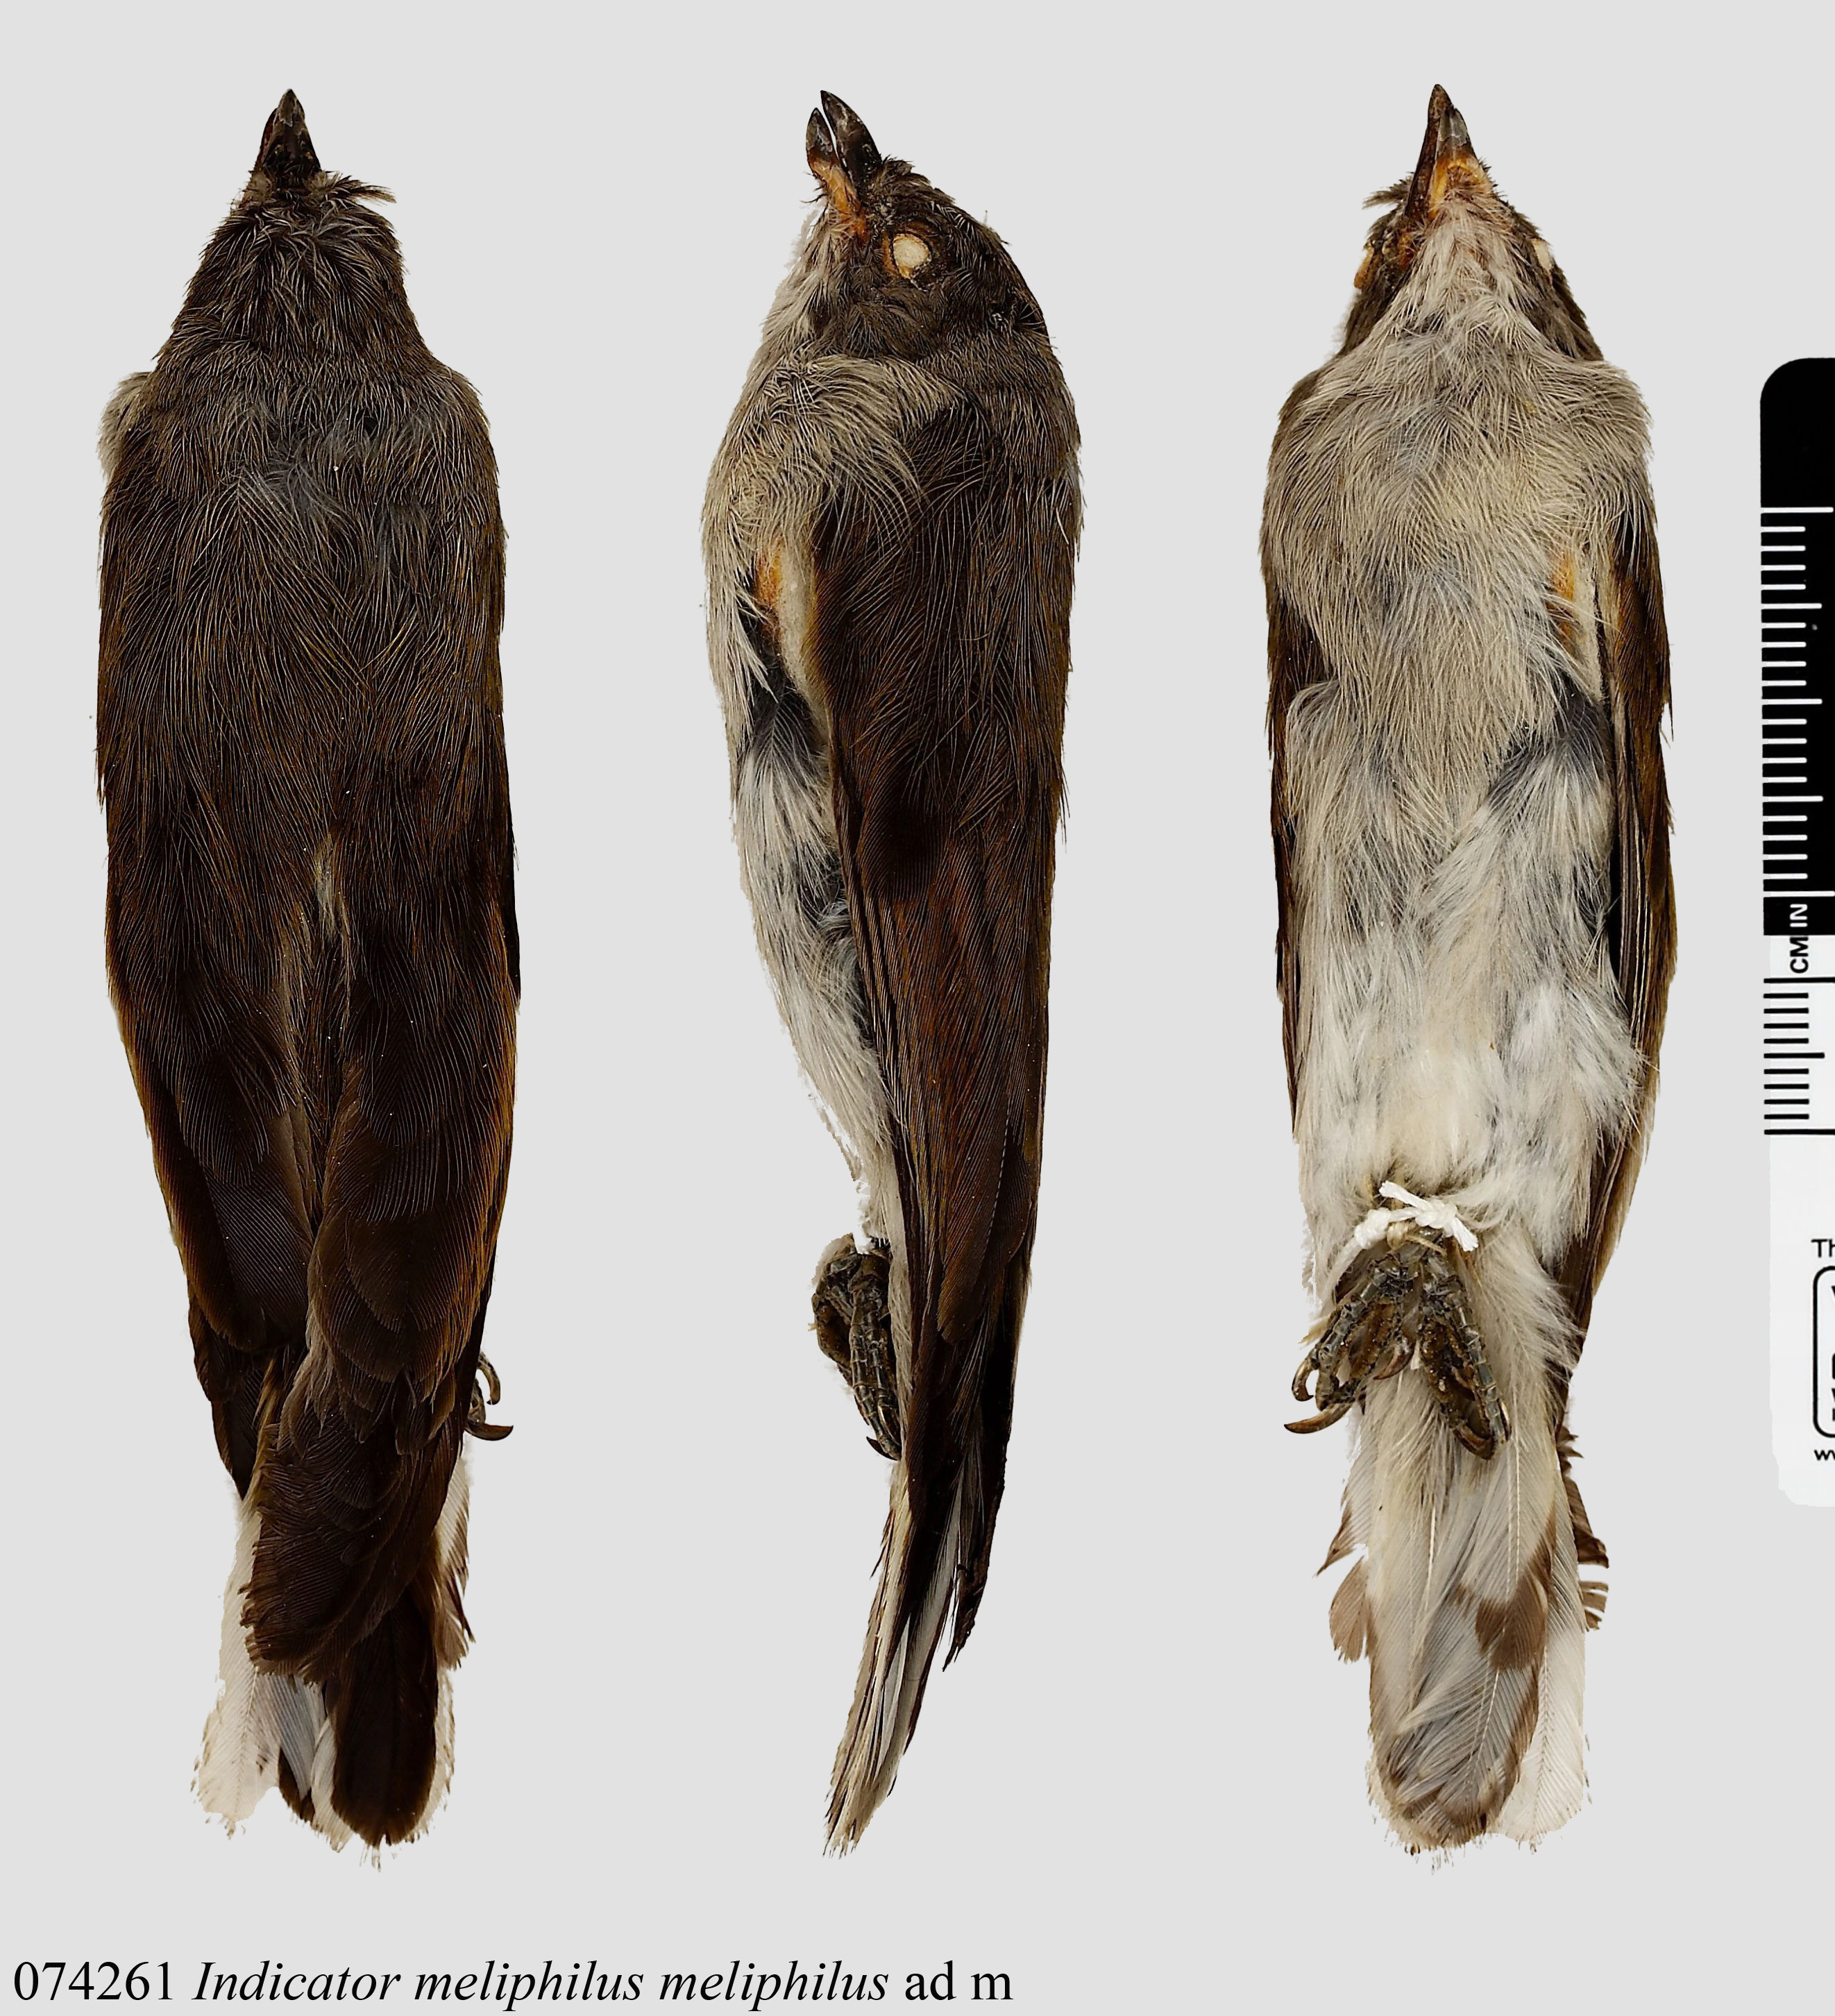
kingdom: Animalia
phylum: Chordata
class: Aves
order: Piciformes
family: Indicatoridae
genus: Indicator
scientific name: Indicator meliphilus
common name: Pallid honeyguide
